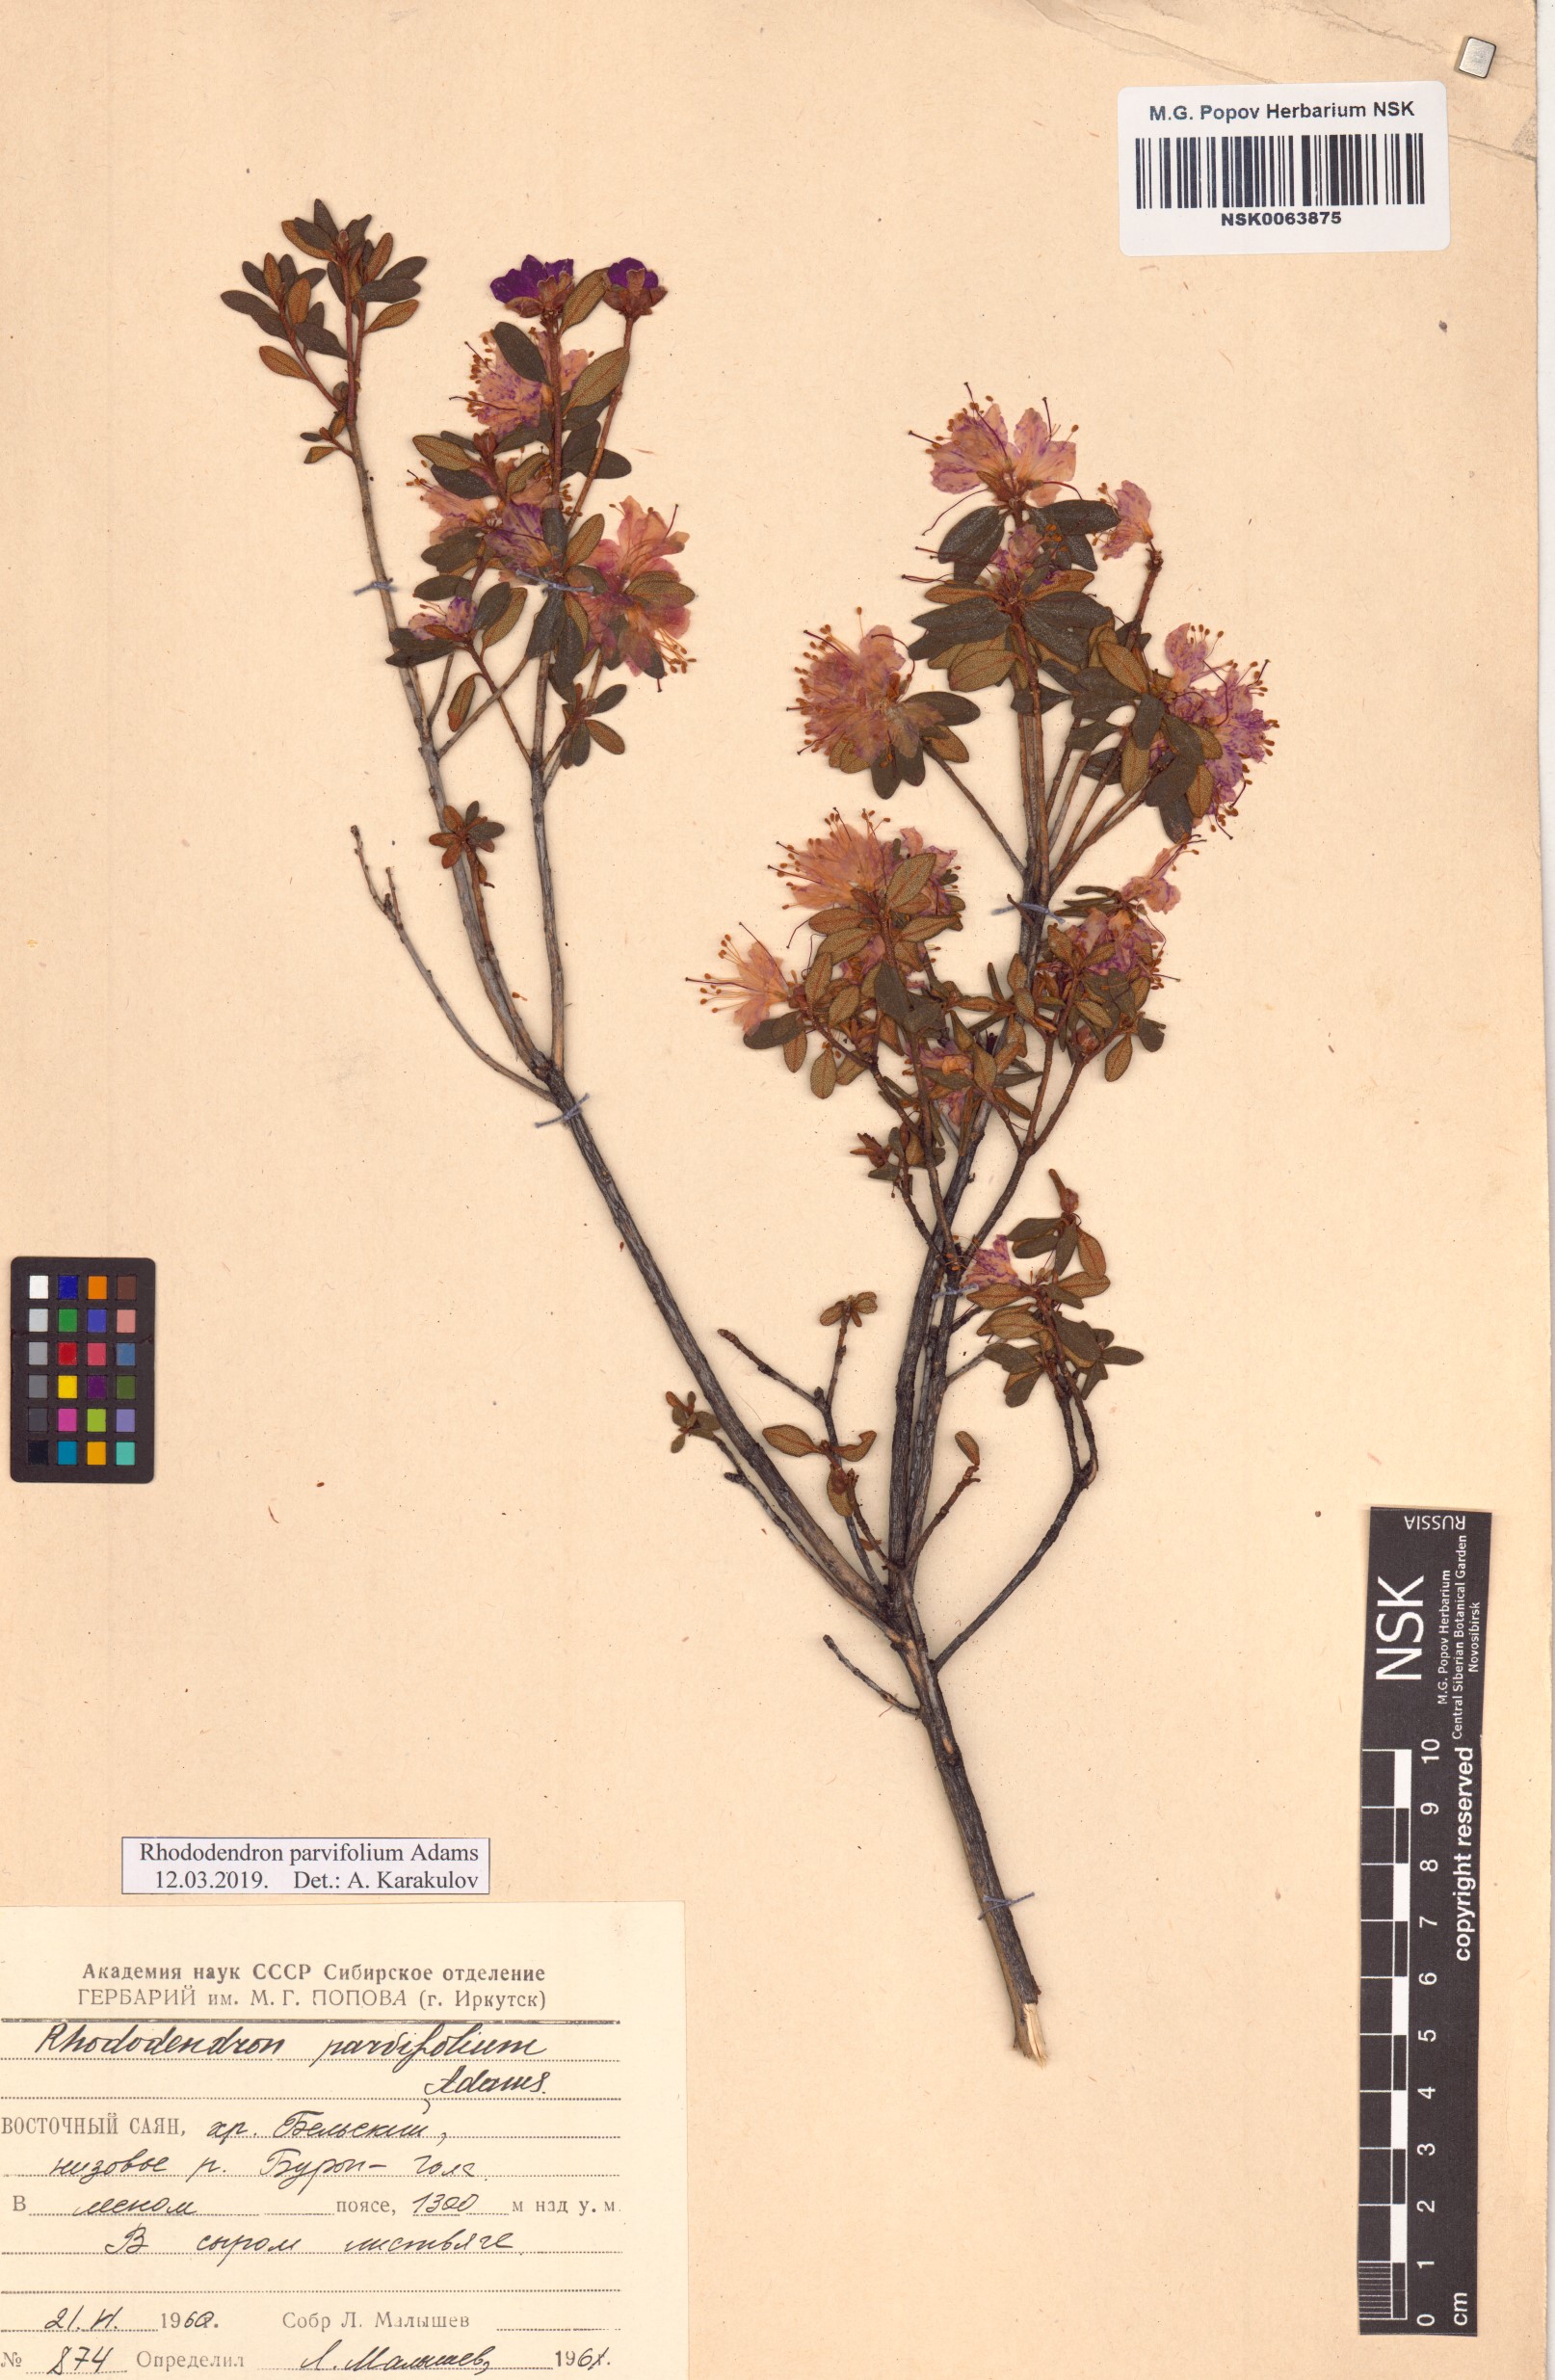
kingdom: Plantae
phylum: Tracheophyta
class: Magnoliopsida
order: Ericales
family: Ericaceae
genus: Rhododendron
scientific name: Rhododendron parvifolium
